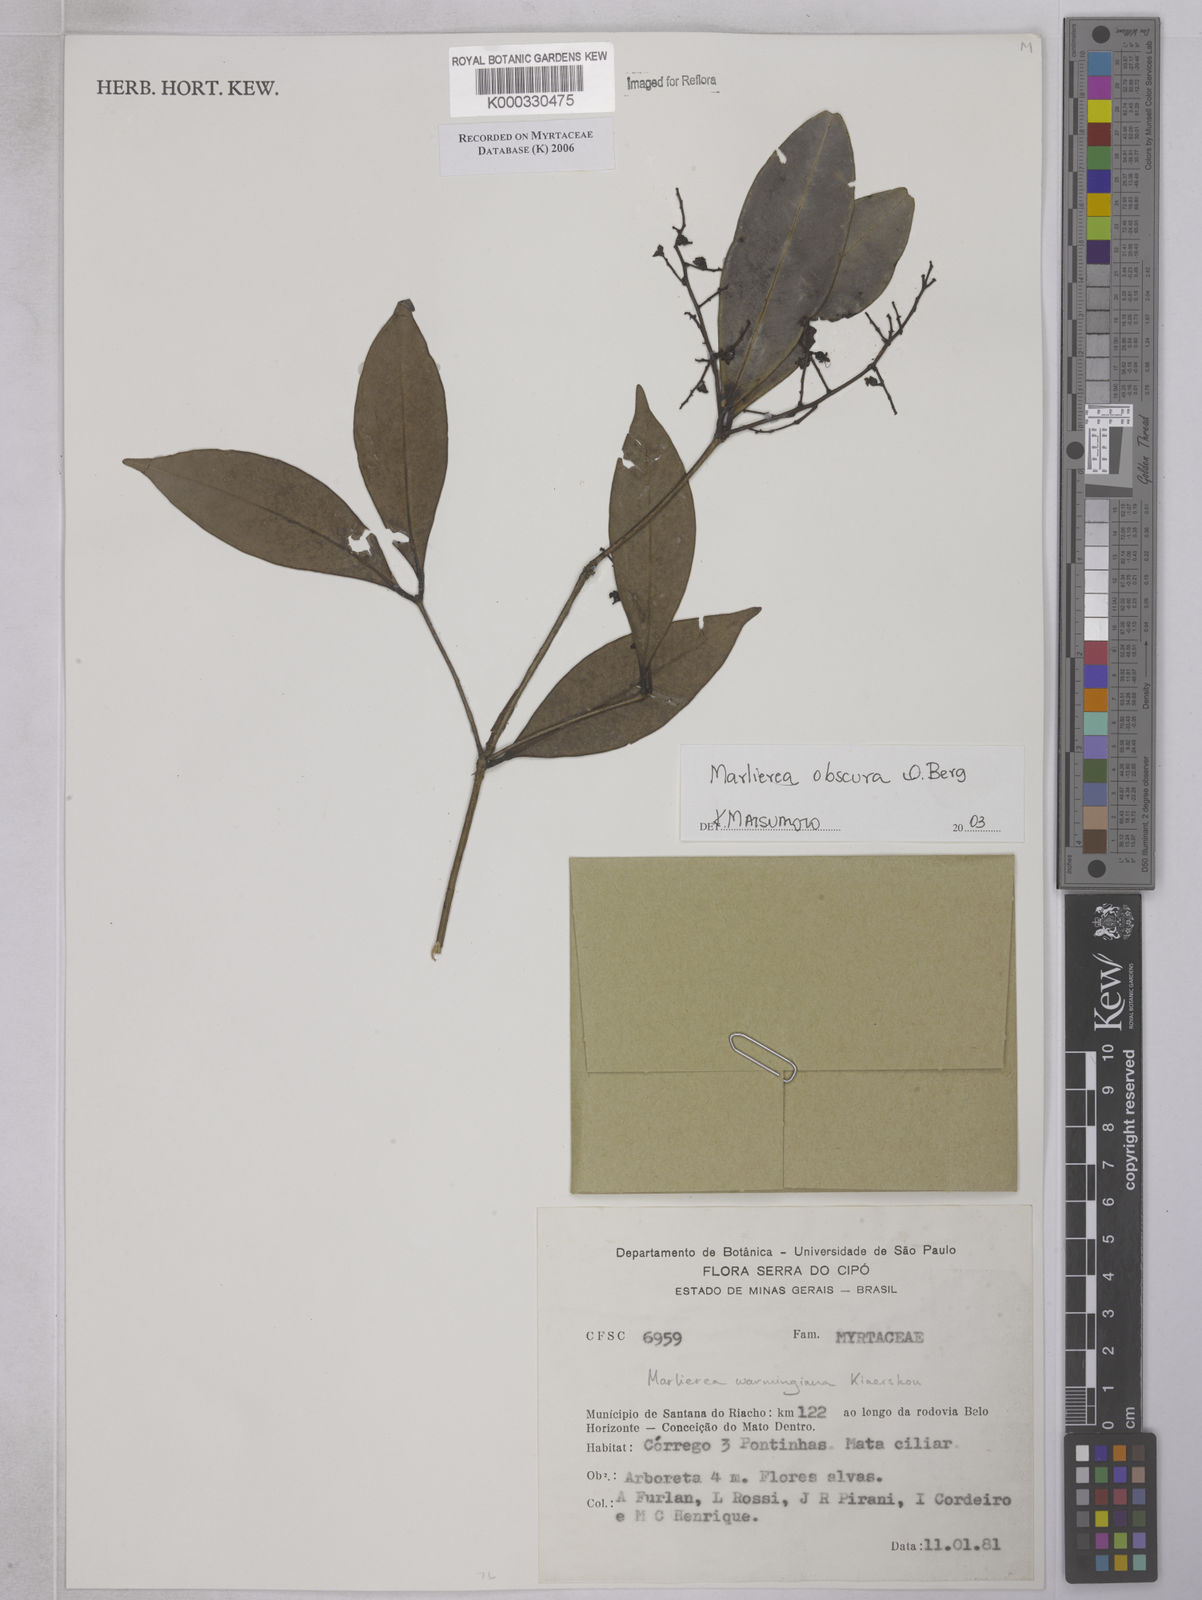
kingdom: Plantae
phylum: Tracheophyta
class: Magnoliopsida
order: Myrtales
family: Myrtaceae
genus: Myrcia
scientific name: Myrcia neoobscura
